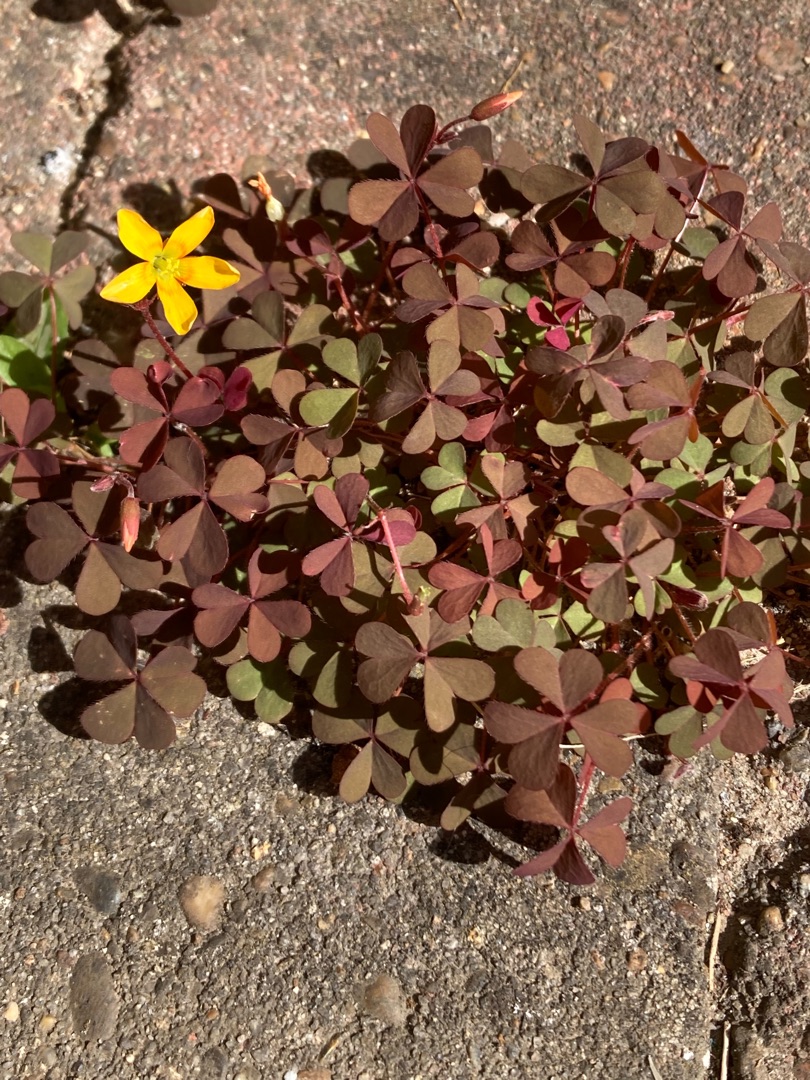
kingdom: Plantae
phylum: Tracheophyta
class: Magnoliopsida
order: Oxalidales
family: Oxalidaceae
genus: Oxalis
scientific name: Oxalis corniculata
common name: Nedliggende surkløver
